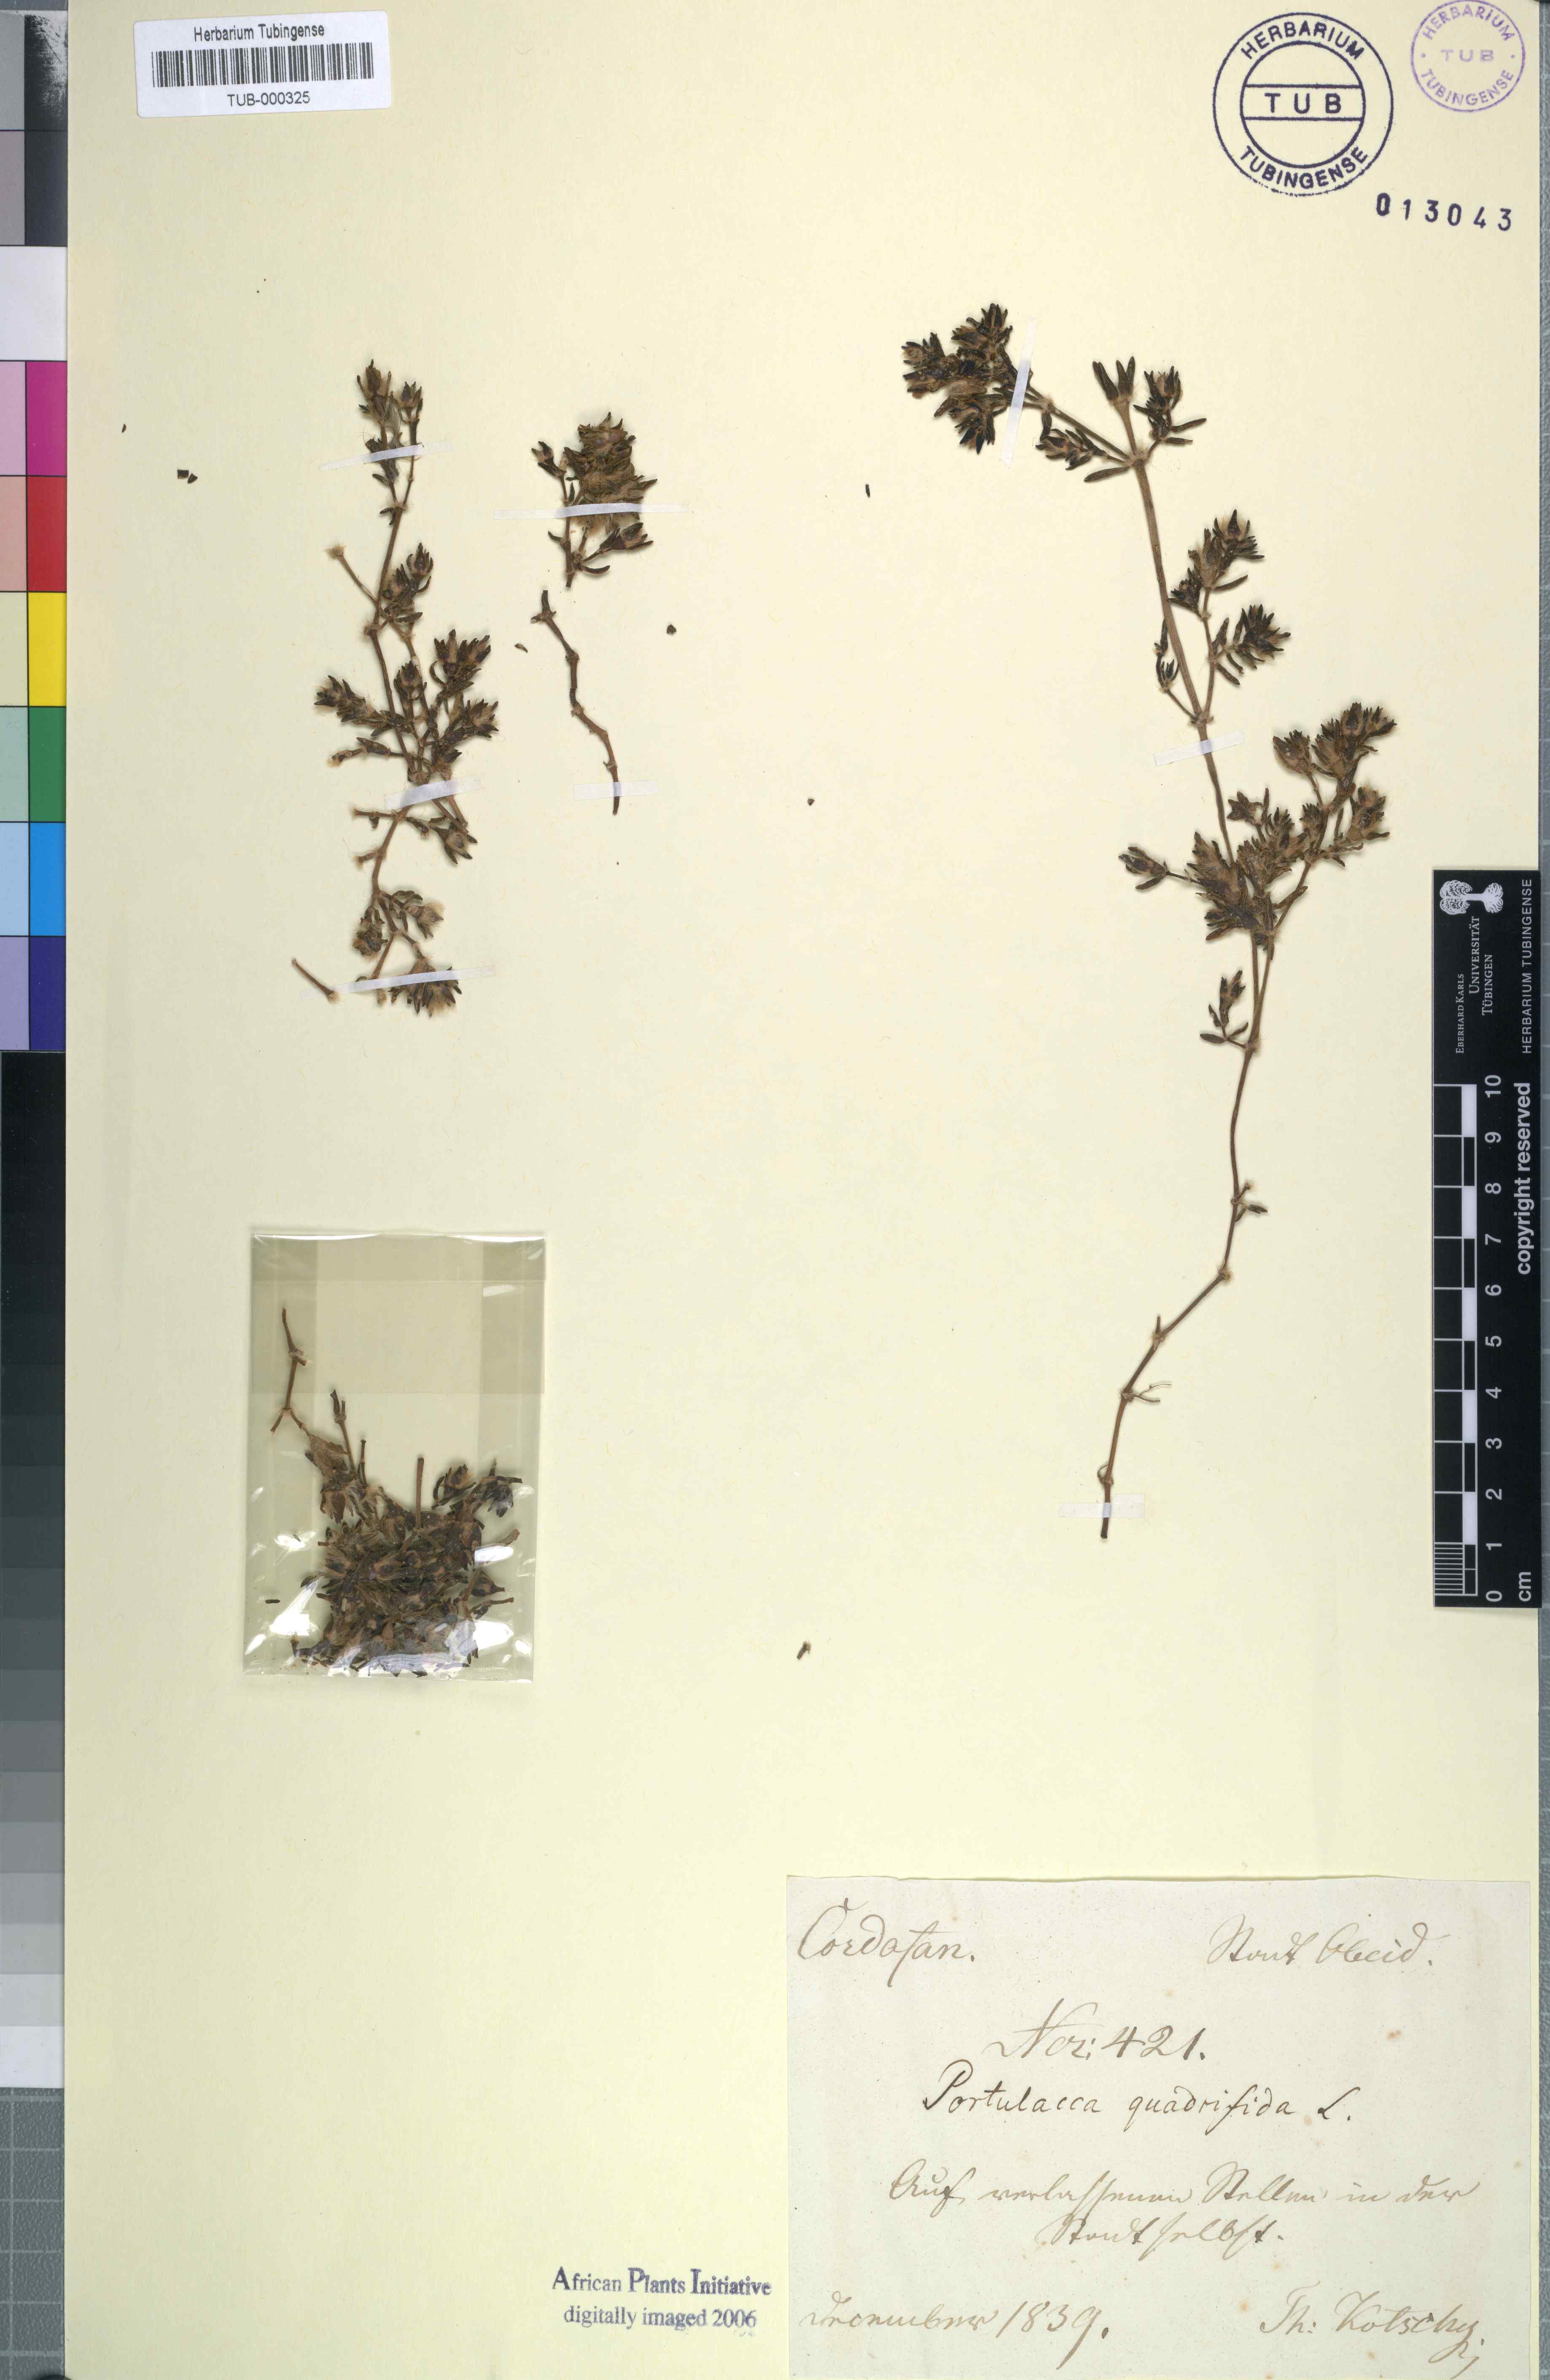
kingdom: Plantae
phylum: Tracheophyta
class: Magnoliopsida
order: Caryophyllales
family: Portulacaceae
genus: Portulaca
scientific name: Portulaca quadrifida
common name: Chickenweed
